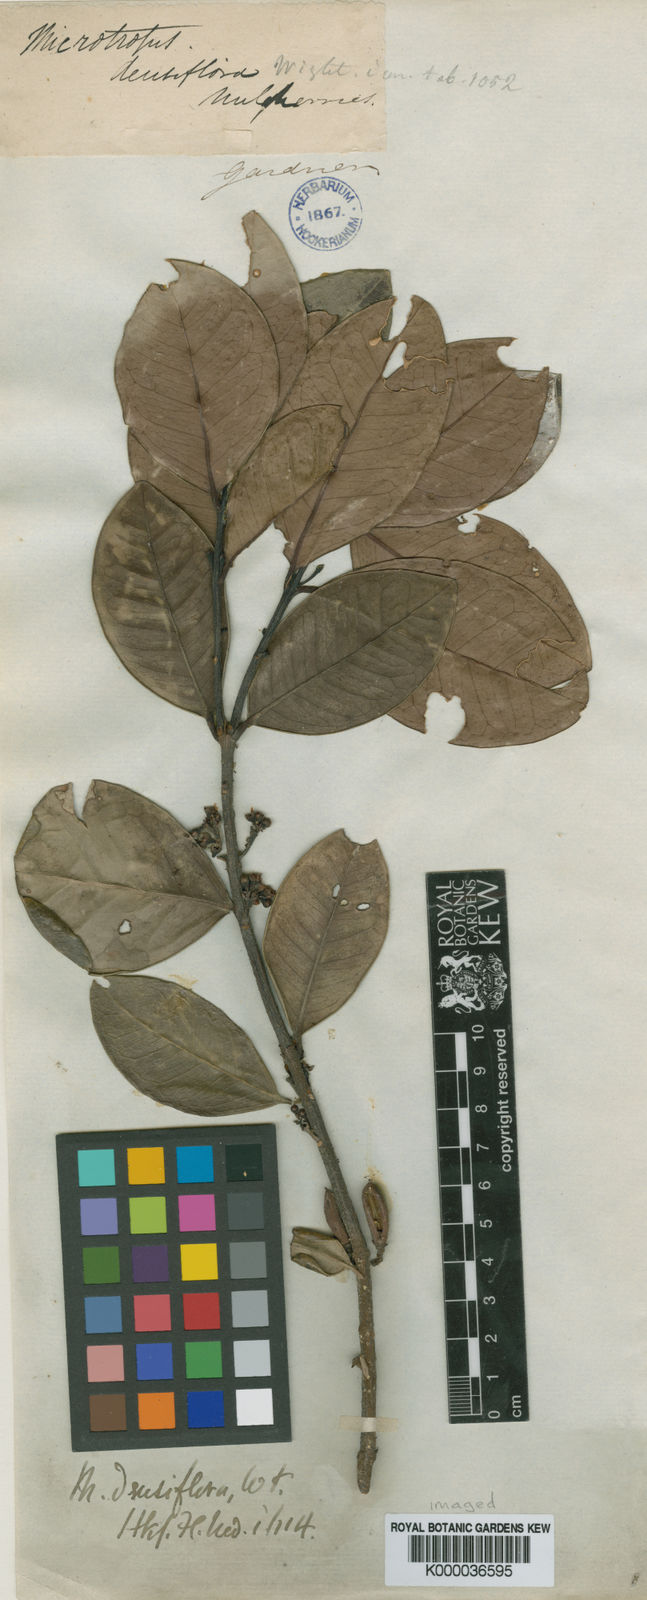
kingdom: Plantae
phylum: Tracheophyta
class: Magnoliopsida
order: Celastrales
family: Celastraceae
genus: Microtropis
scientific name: Microtropis microcarpa
